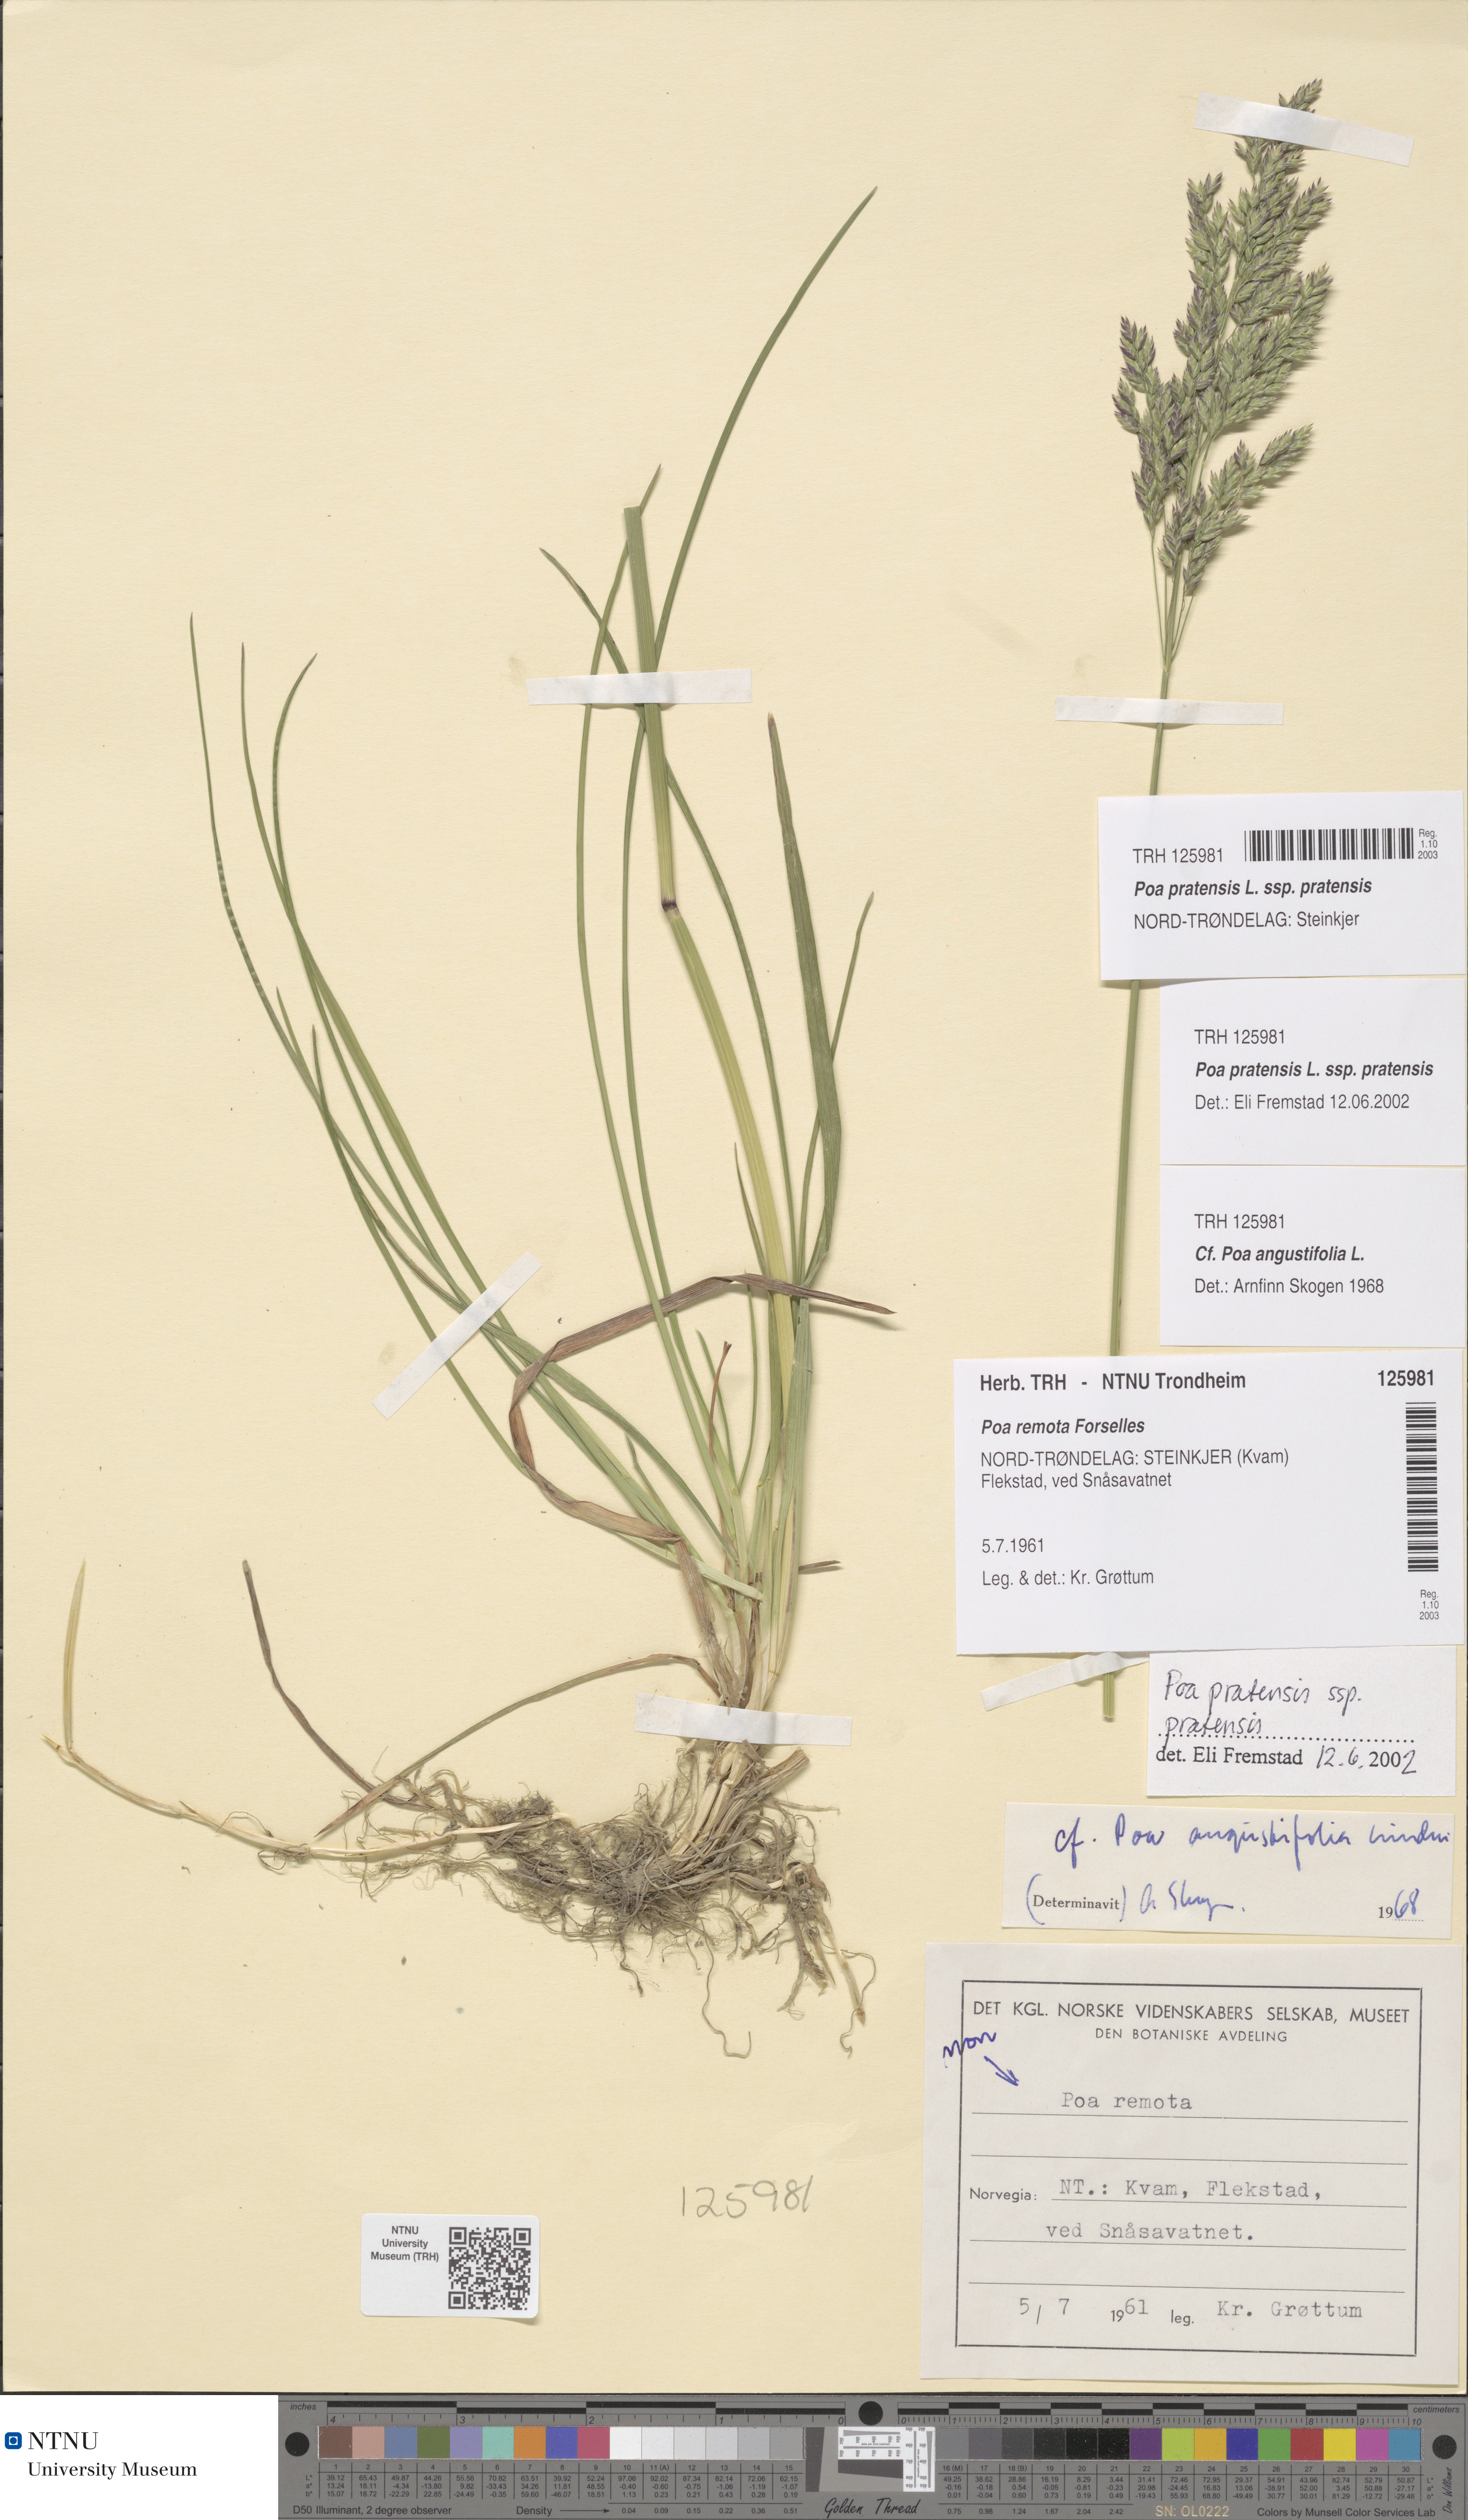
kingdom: Plantae
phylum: Tracheophyta
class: Liliopsida
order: Poales
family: Poaceae
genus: Poa
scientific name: Poa pratensis
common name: Kentucky bluegrass
